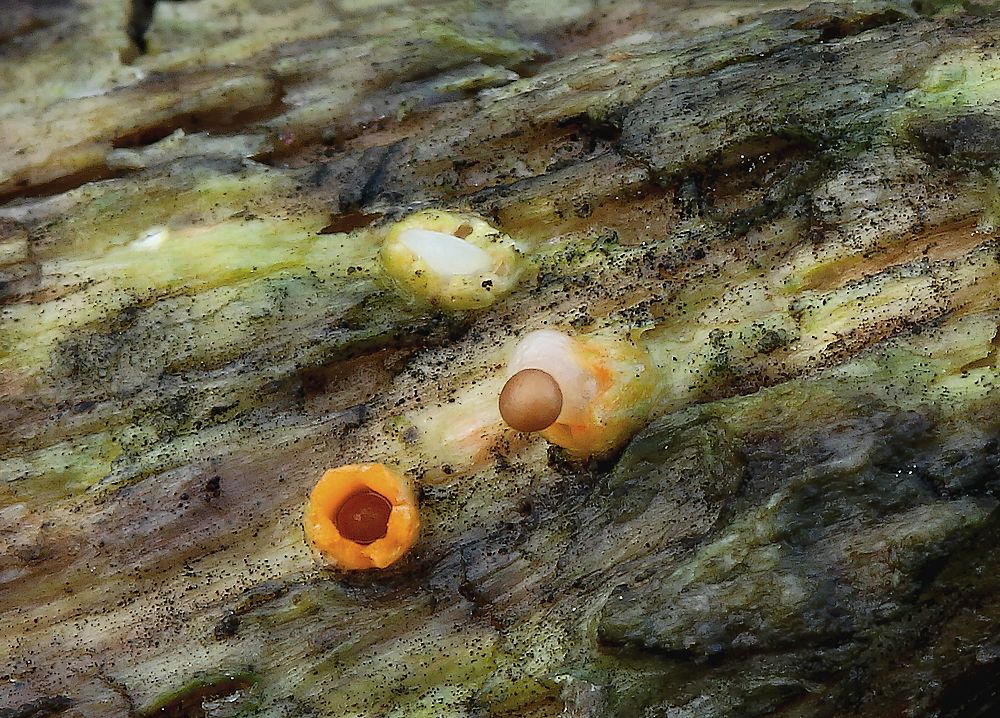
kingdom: Fungi
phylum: Basidiomycota
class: Agaricomycetes
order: Geastrales
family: Geastraceae
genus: Sphaerobolus
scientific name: Sphaerobolus stellatus
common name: bombekaster
